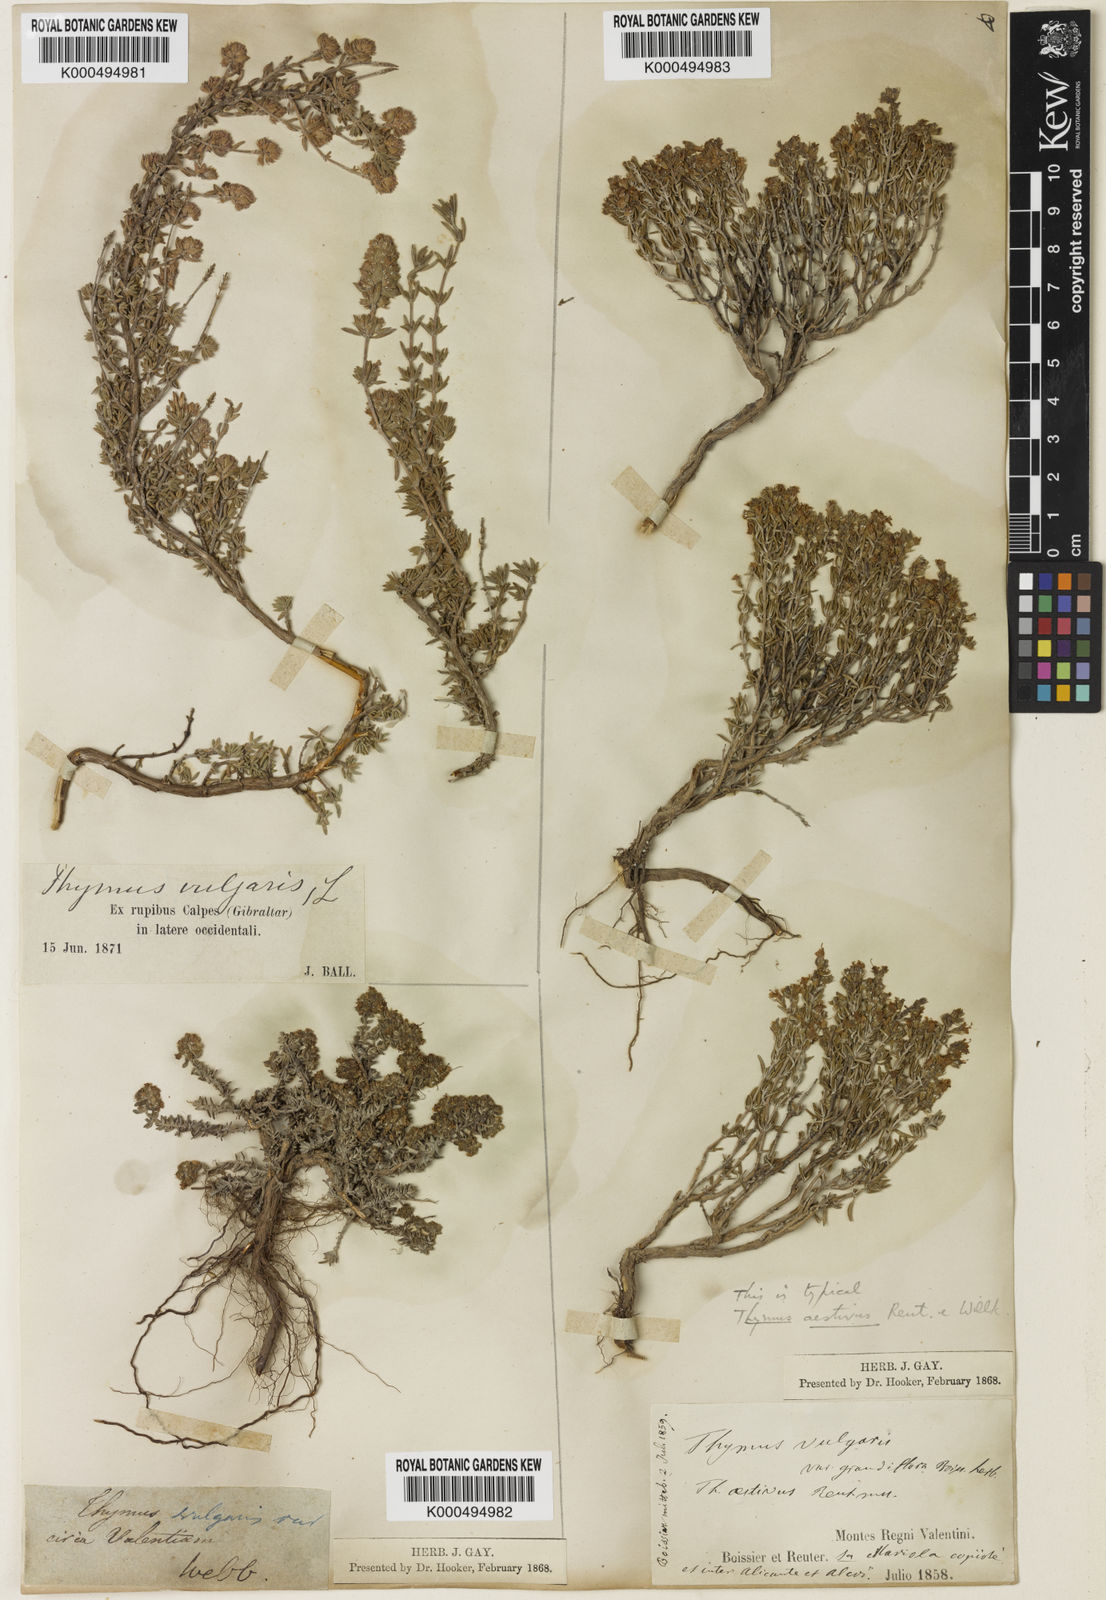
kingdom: Plantae
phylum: Tracheophyta
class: Magnoliopsida
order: Lamiales
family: Lamiaceae
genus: Thymus
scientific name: Thymus vulgaris
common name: Garden thyme
